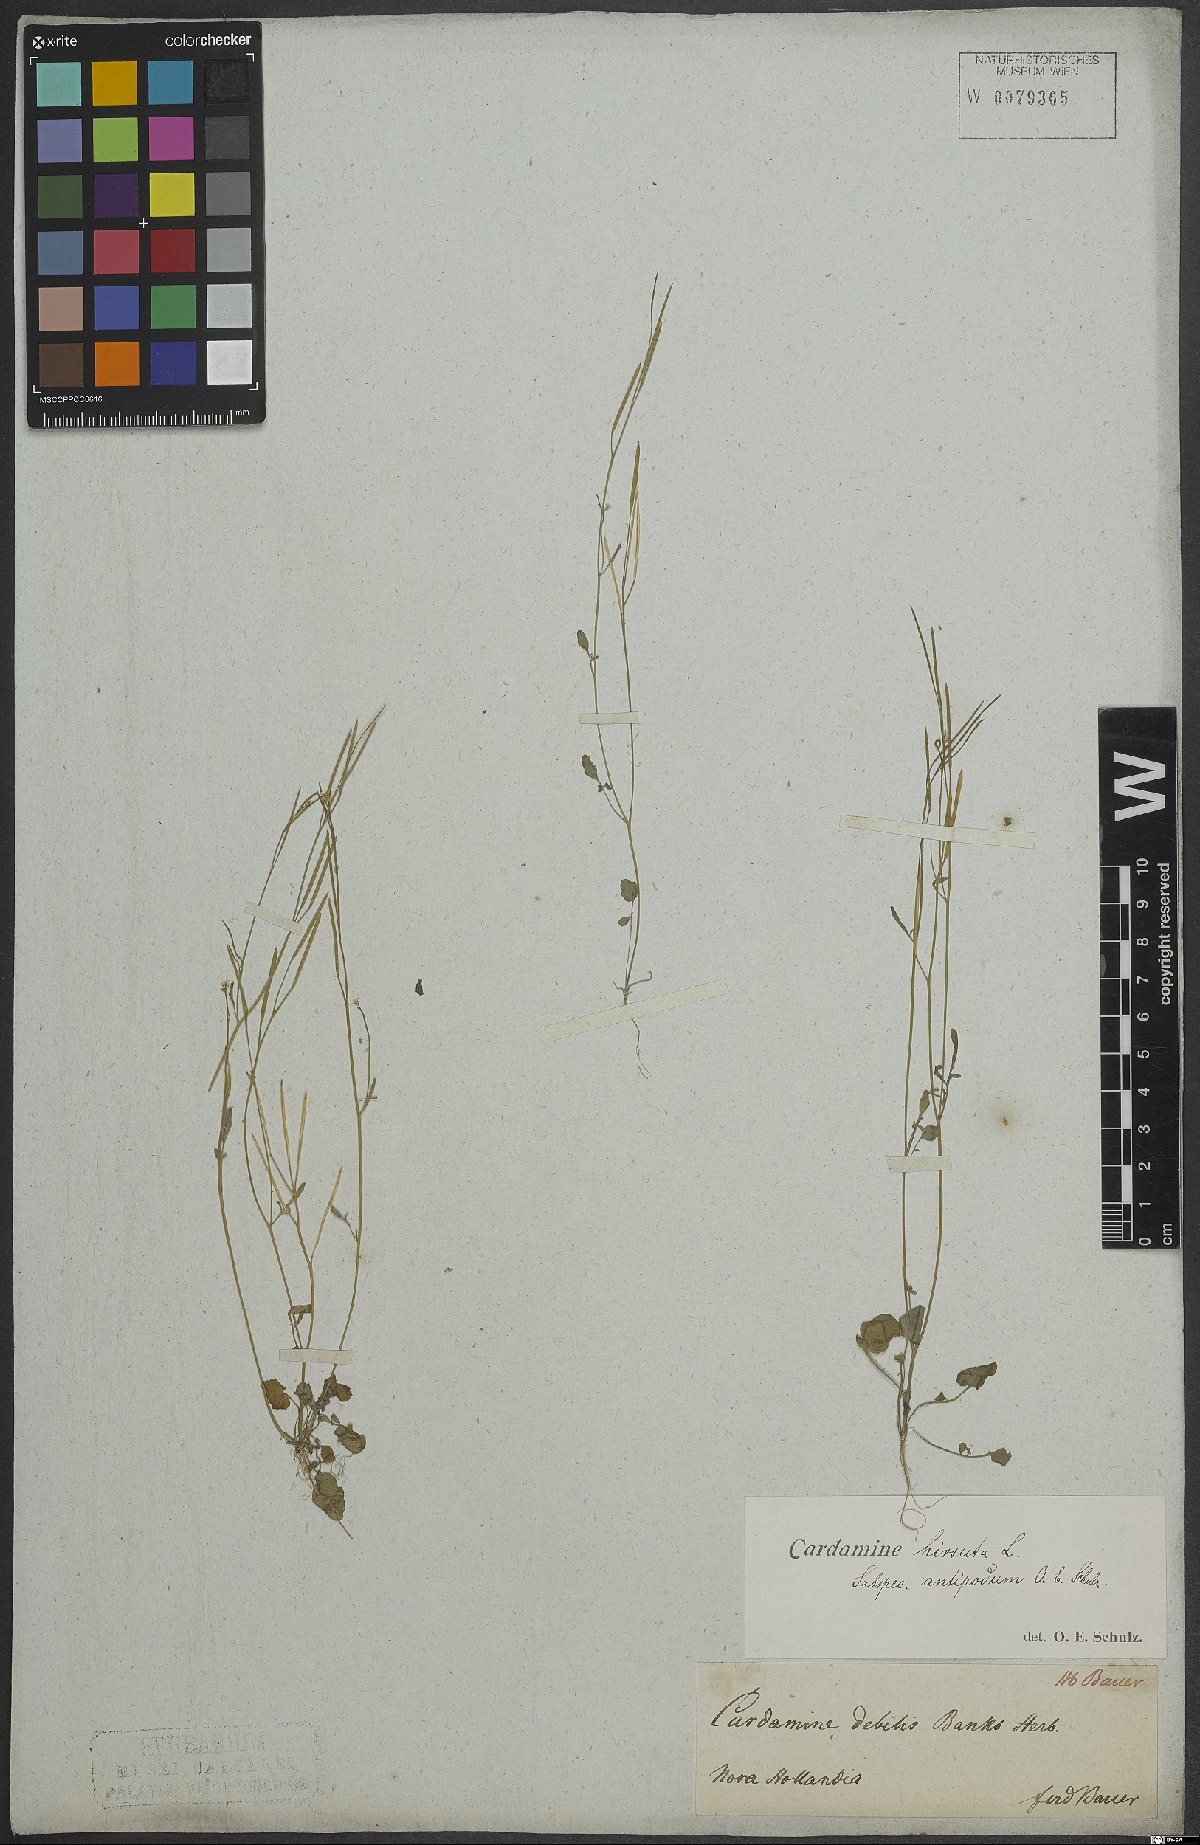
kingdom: Plantae
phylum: Tracheophyta
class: Magnoliopsida
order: Brassicales
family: Brassicaceae
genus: Cardamine
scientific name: Cardamine hirsuta
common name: Hairy bittercress
